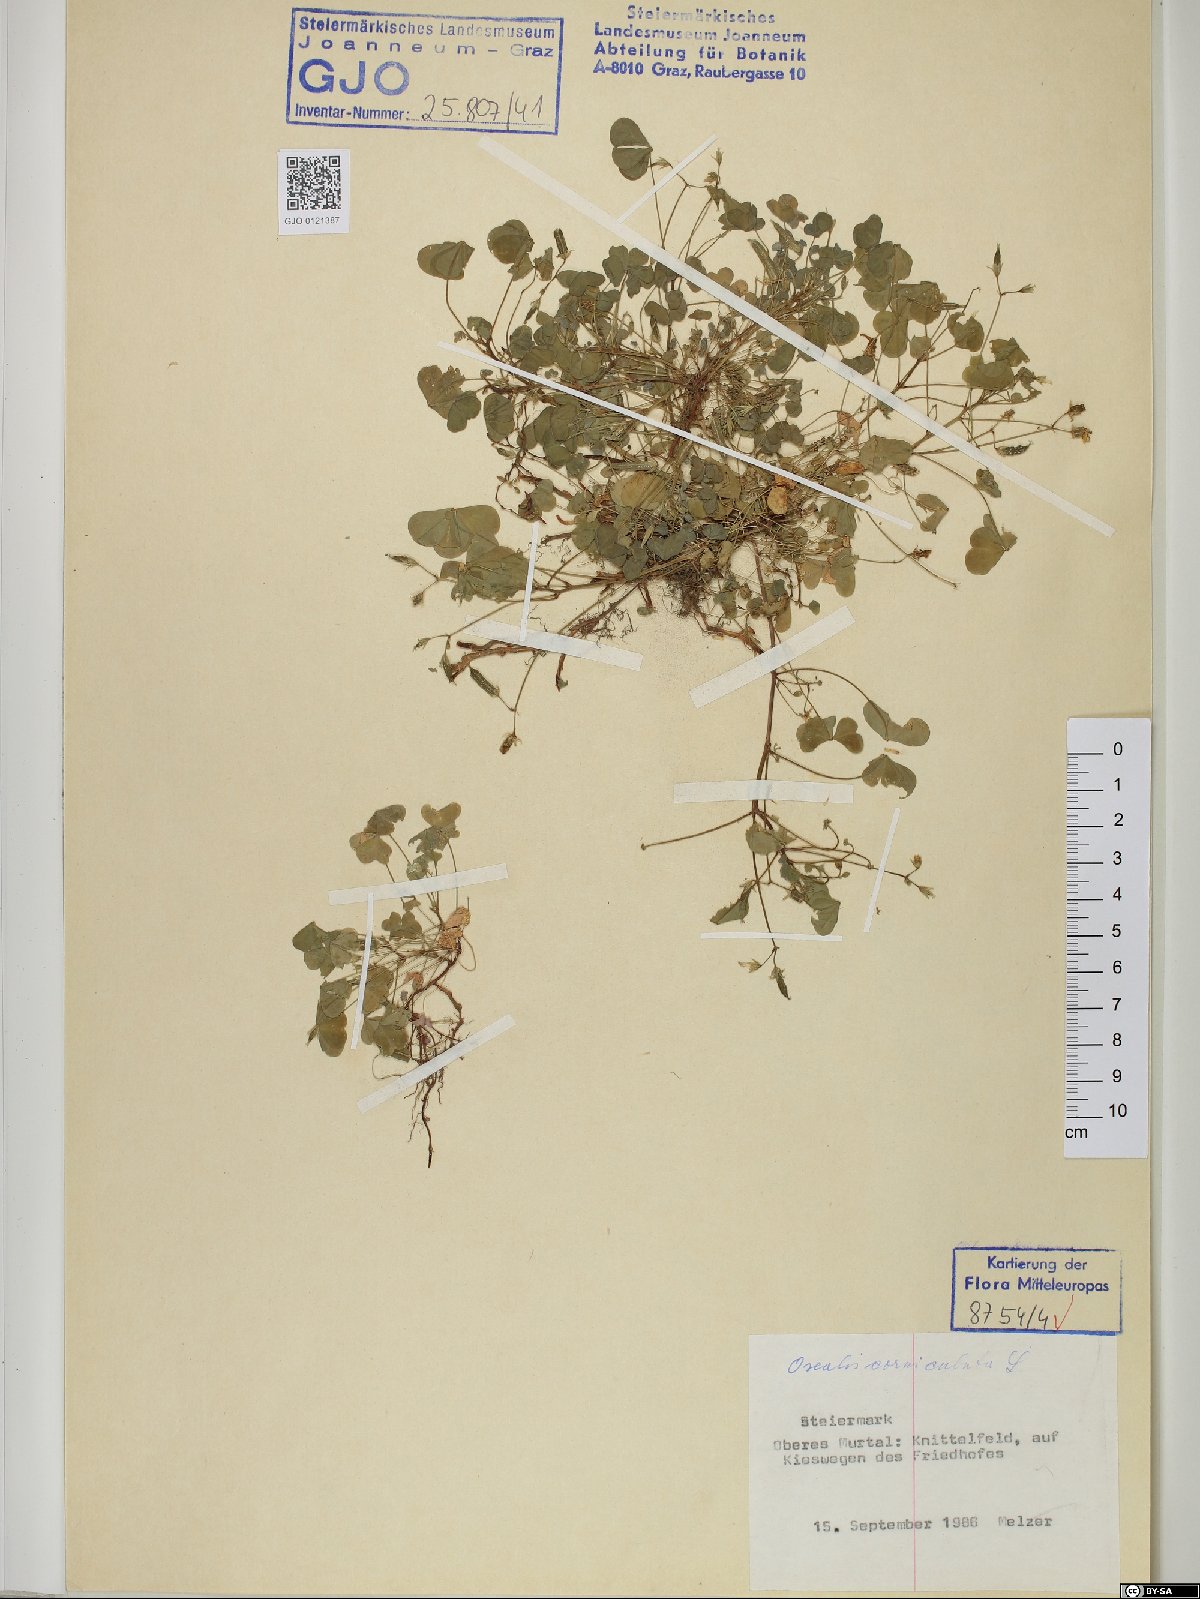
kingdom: Plantae
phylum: Tracheophyta
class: Magnoliopsida
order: Oxalidales
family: Oxalidaceae
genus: Oxalis
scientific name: Oxalis corniculata
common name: Procumbent yellow-sorrel
